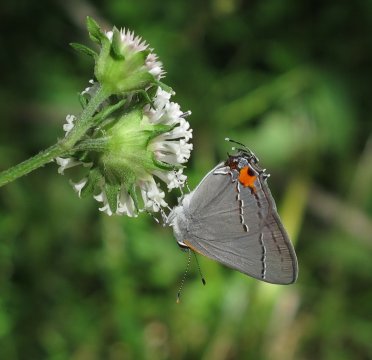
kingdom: Animalia
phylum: Arthropoda
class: Insecta
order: Lepidoptera
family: Lycaenidae
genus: Strymon
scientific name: Strymon melinus
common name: Gray Hairstreak
